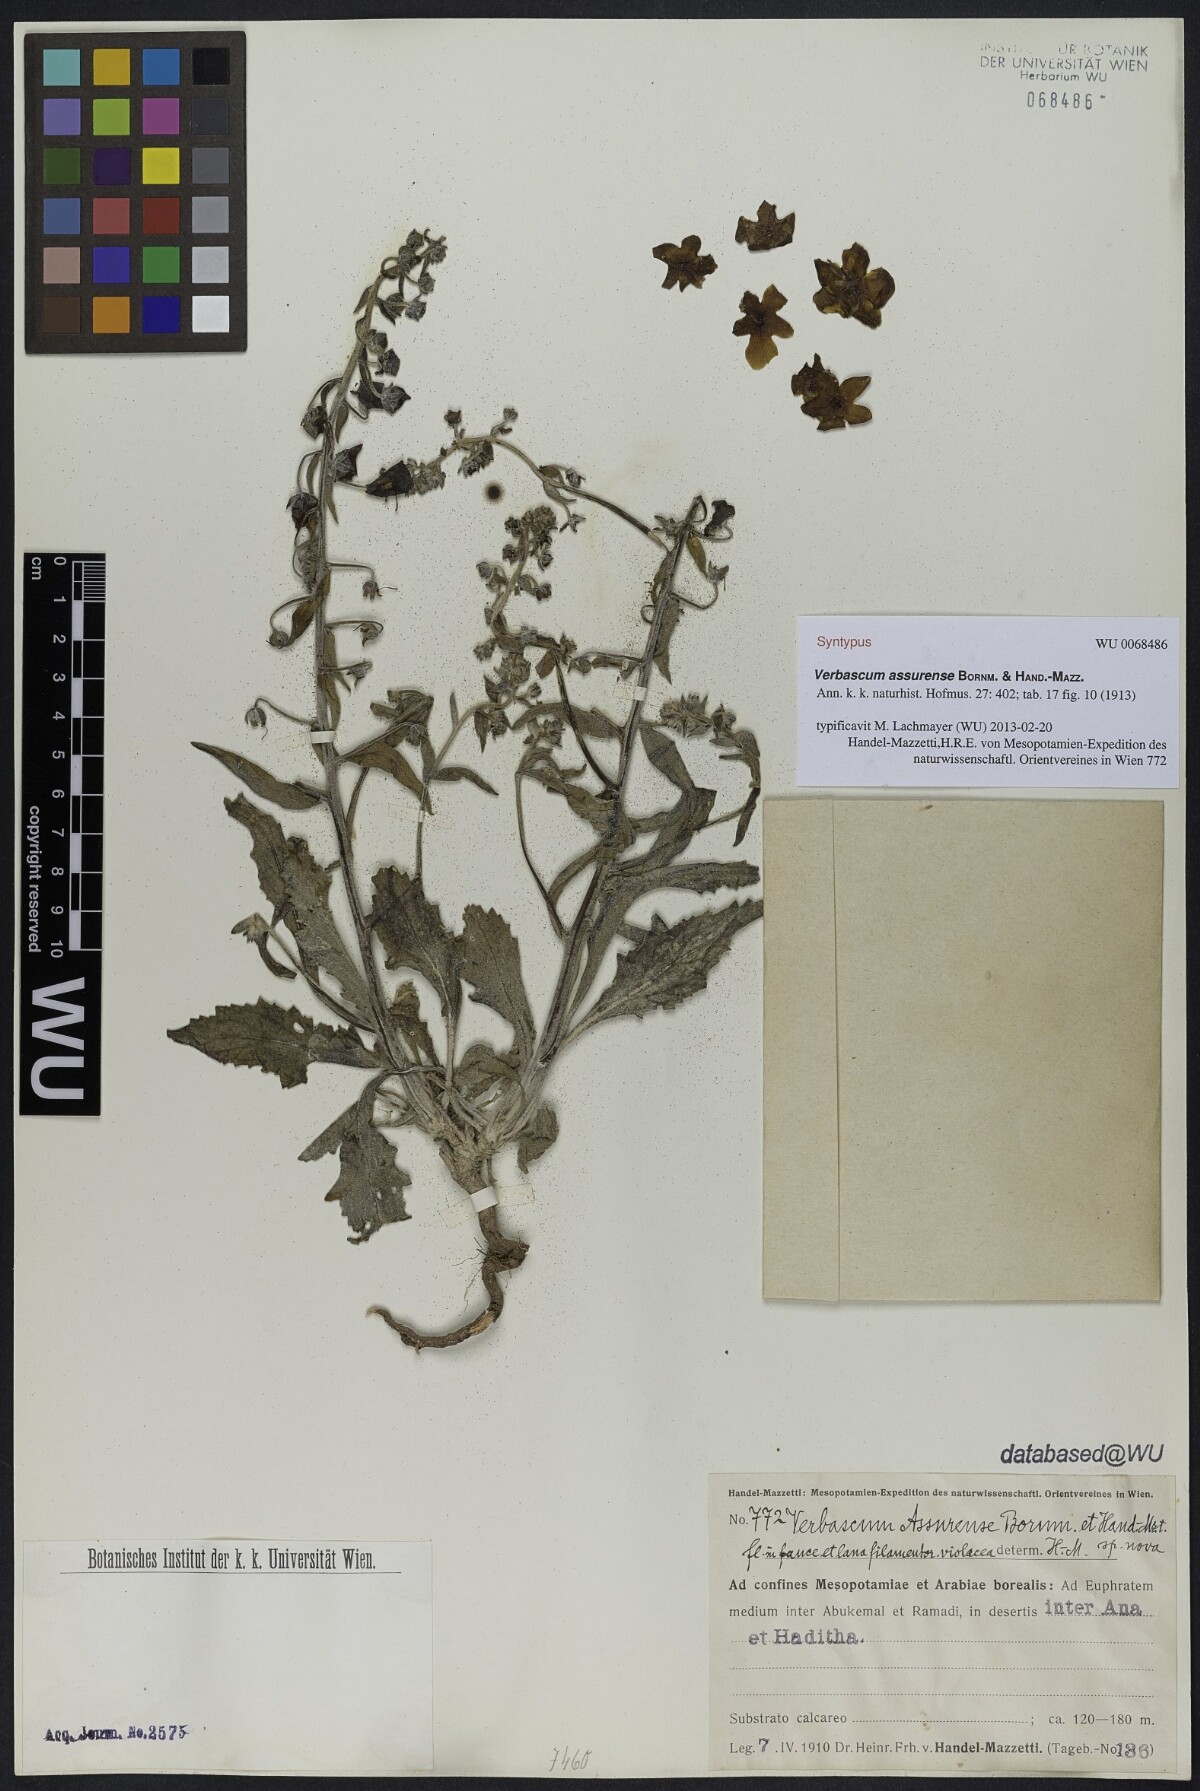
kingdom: Plantae
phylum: Tracheophyta
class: Magnoliopsida
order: Lamiales
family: Scrophulariaceae
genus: Verbascum
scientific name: Verbascum assurense
